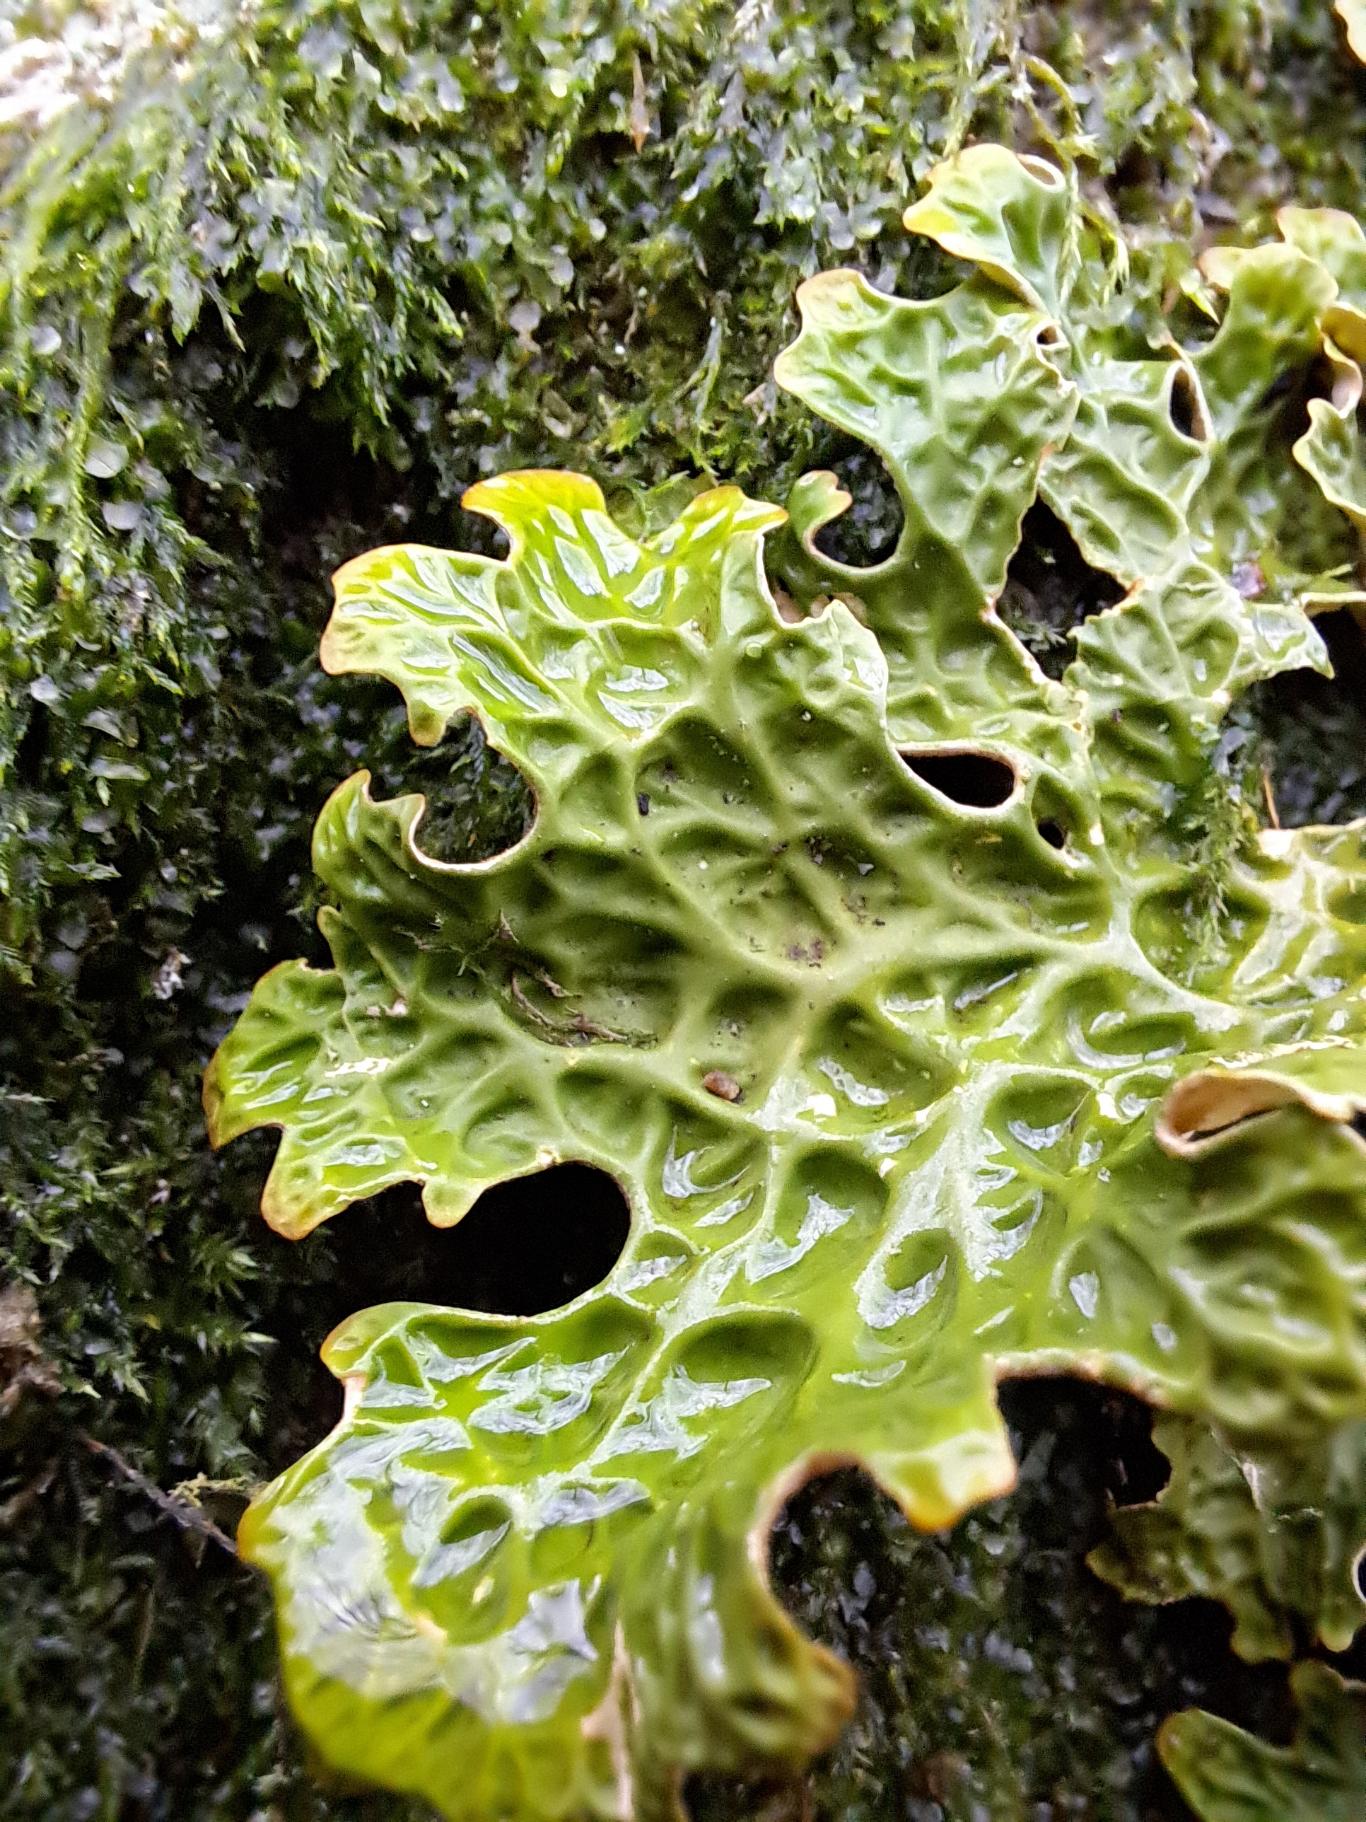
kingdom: Fungi
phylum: Ascomycota
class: Lecanoromycetes
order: Peltigerales
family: Lobariaceae
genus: Lobaria
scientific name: Lobaria pulmonaria
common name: Almindelig lungelav
